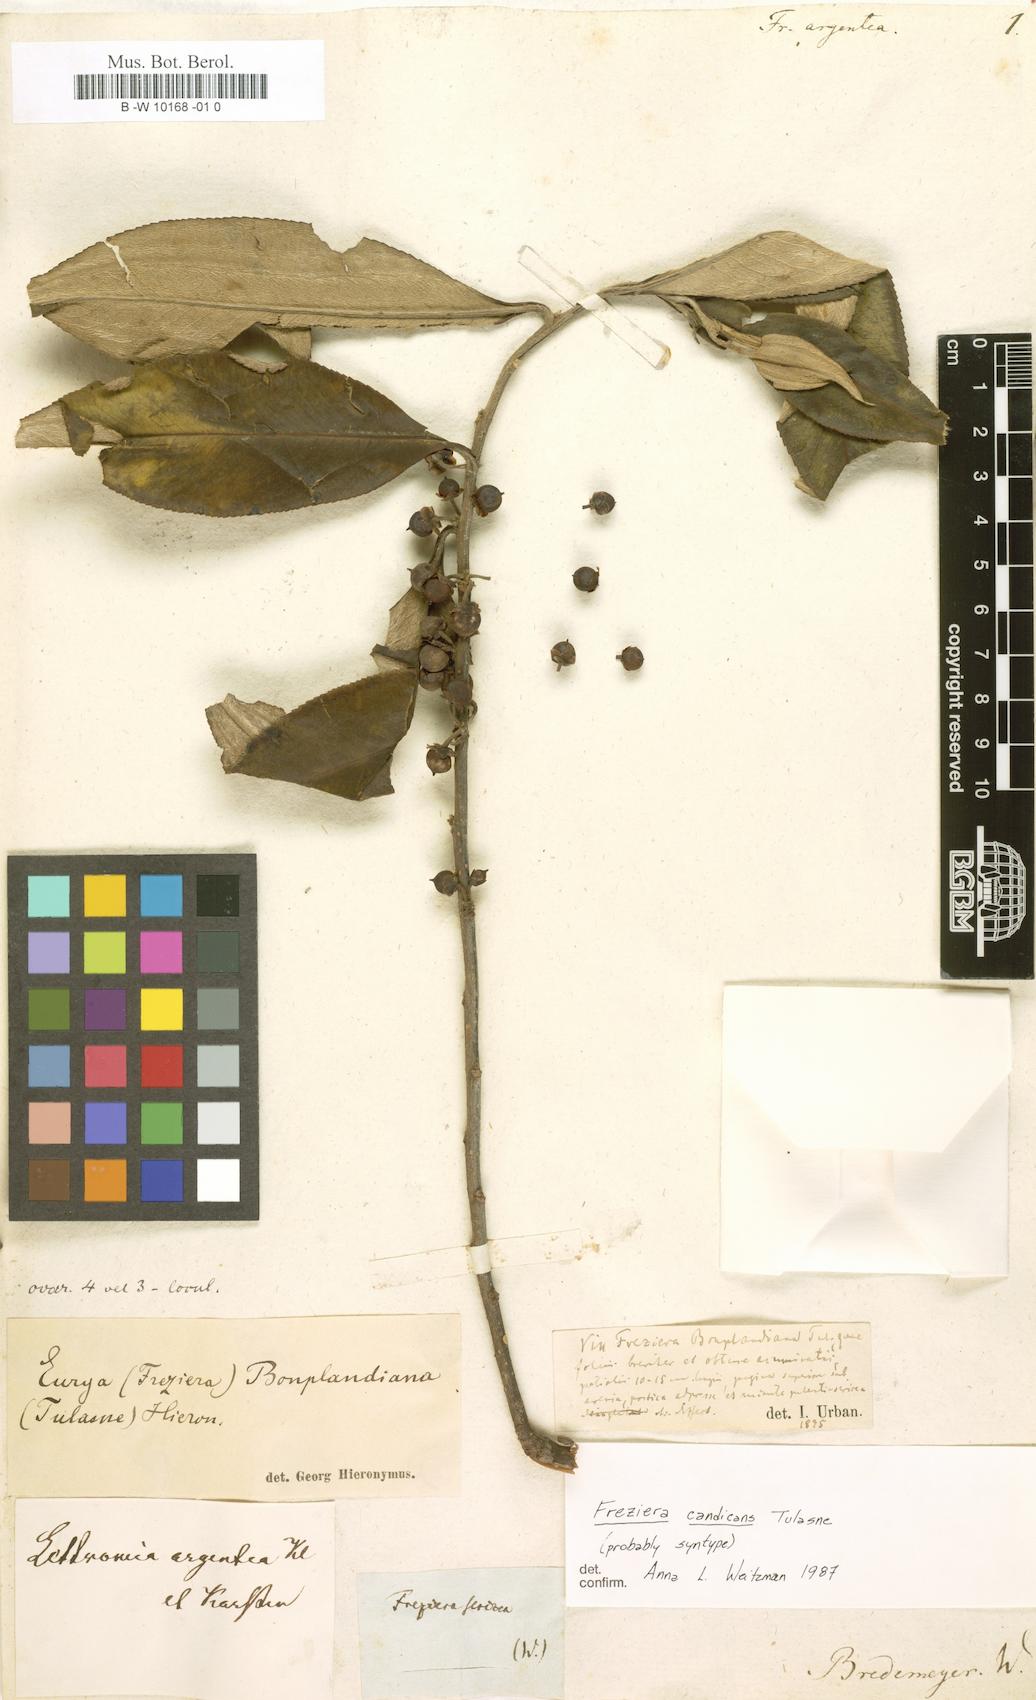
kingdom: Plantae
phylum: Tracheophyta
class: Magnoliopsida
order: Ericales
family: Pentaphylacaceae
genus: Freziera
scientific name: Freziera
